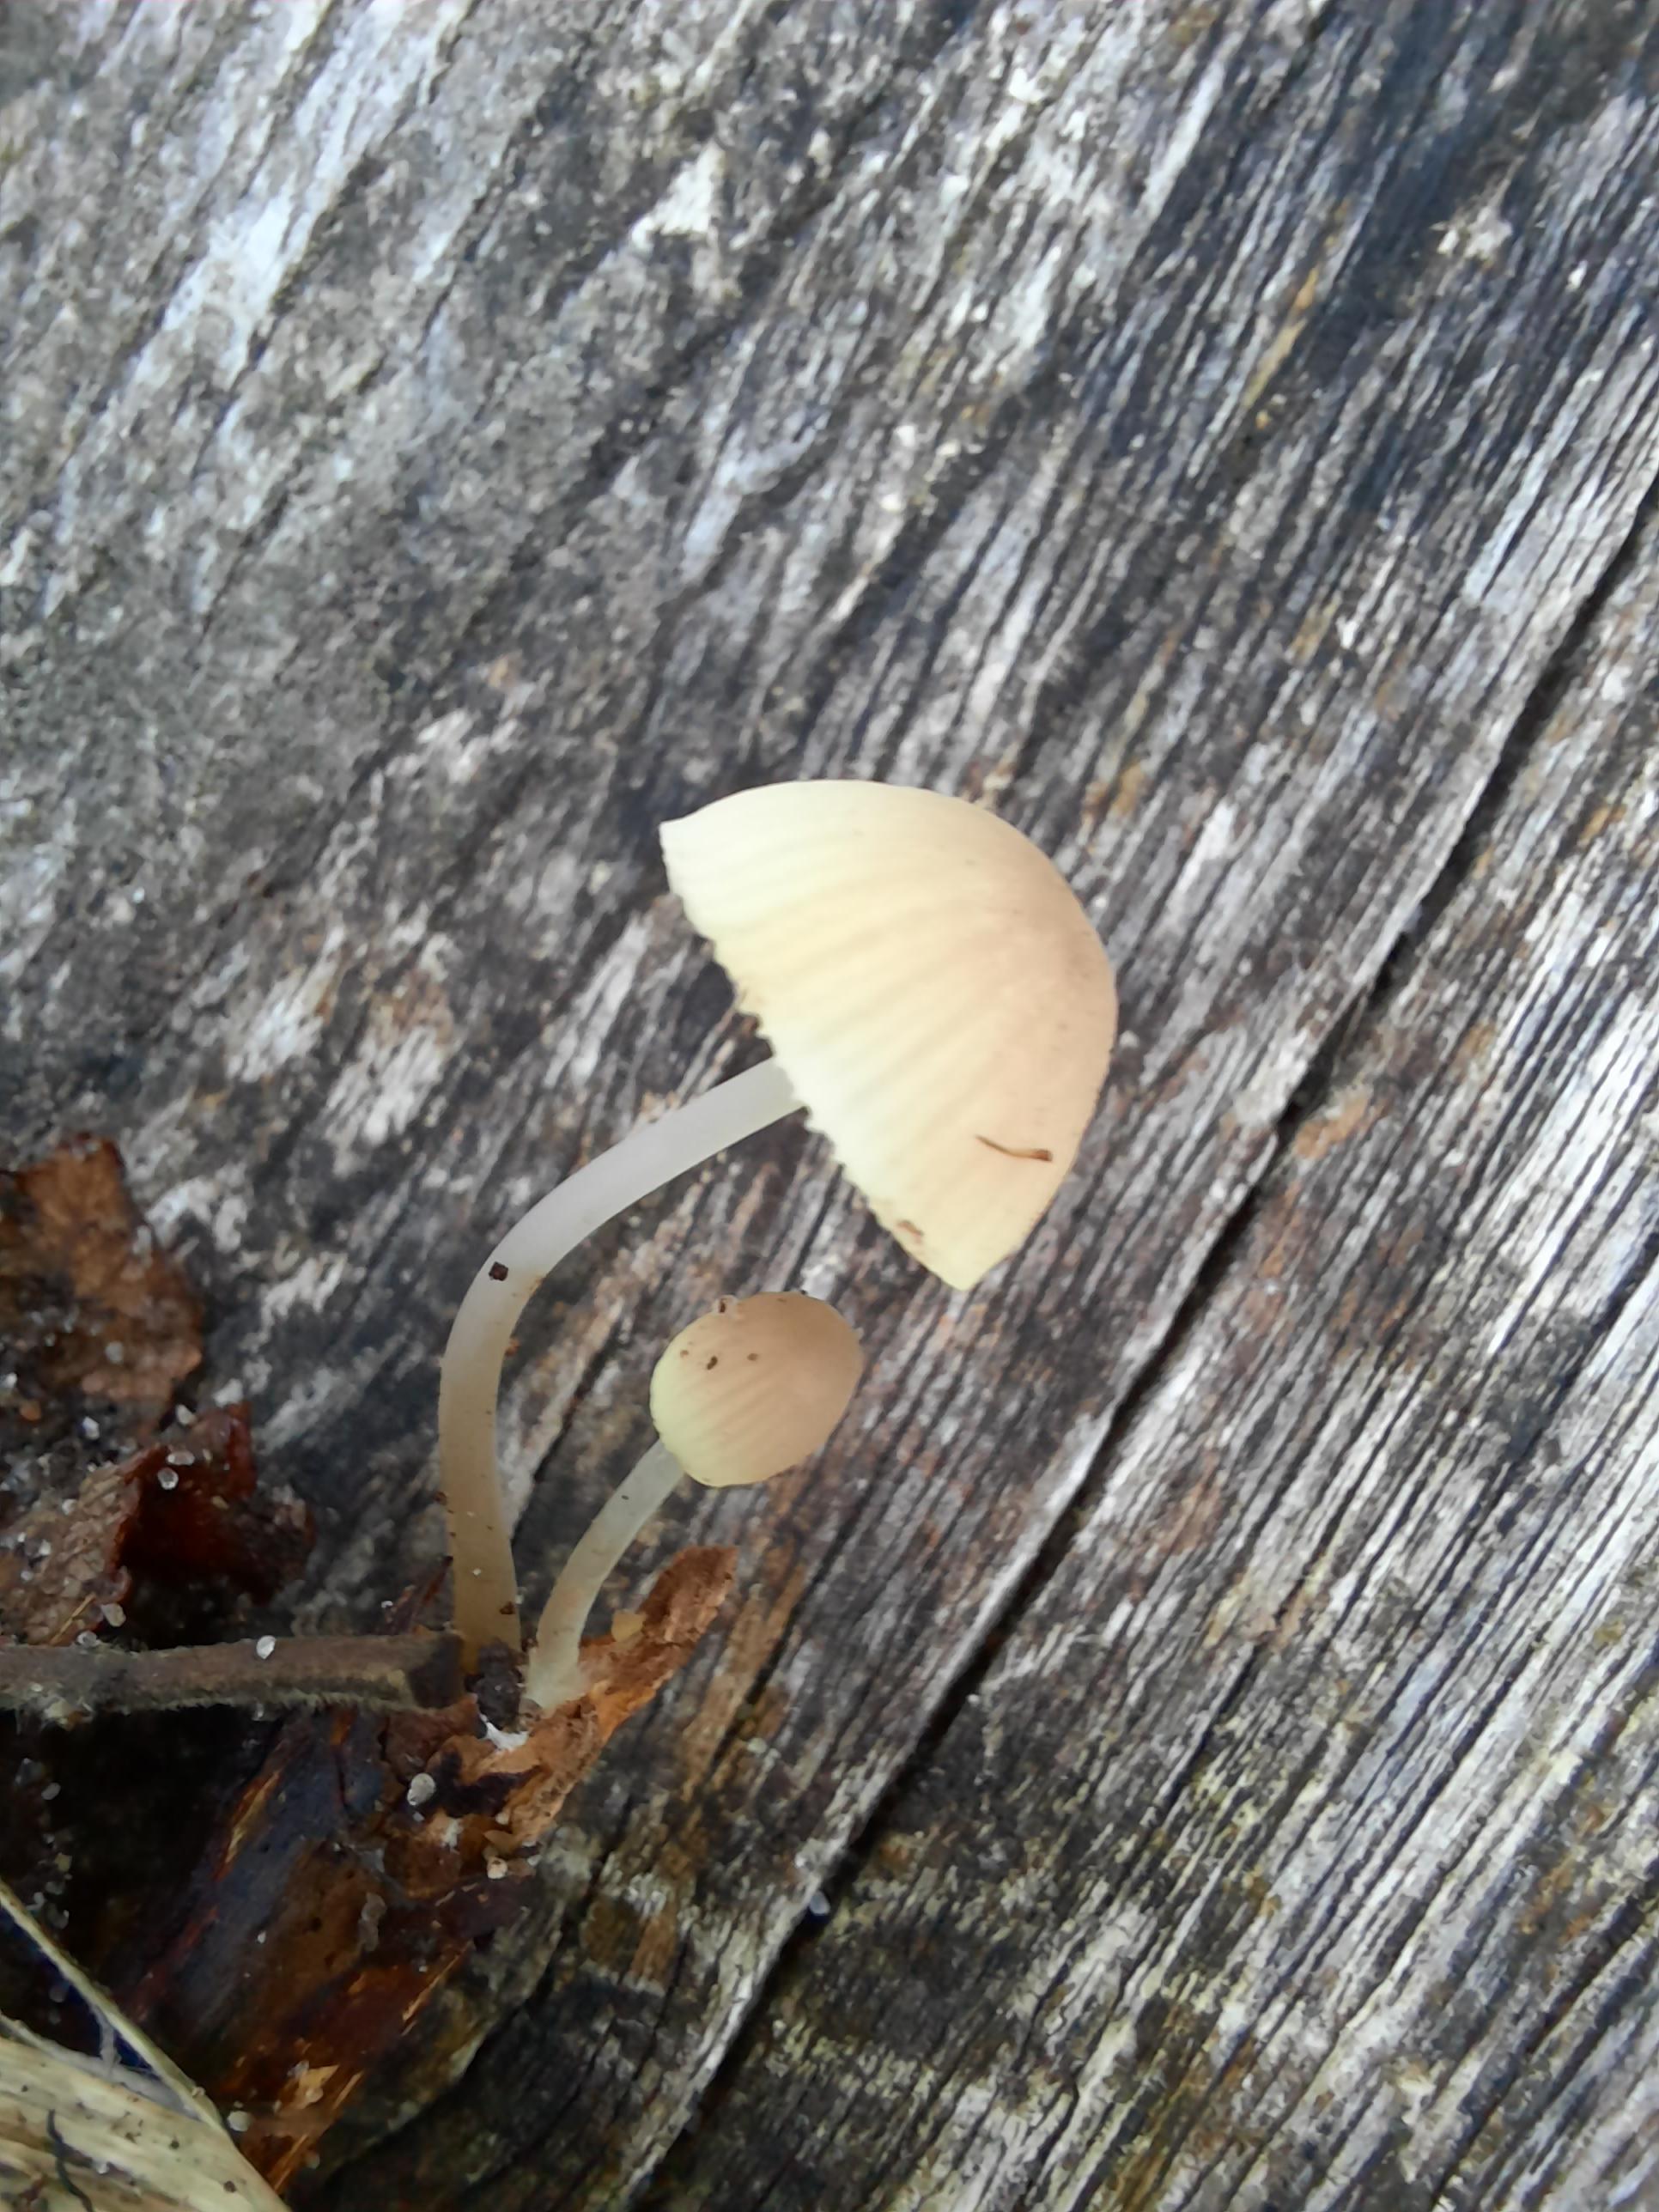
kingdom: Fungi
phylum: Basidiomycota
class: Agaricomycetes
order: Agaricales
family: Mycenaceae
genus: Mycena
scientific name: Mycena arcangeliana
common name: oliven-huesvamp
